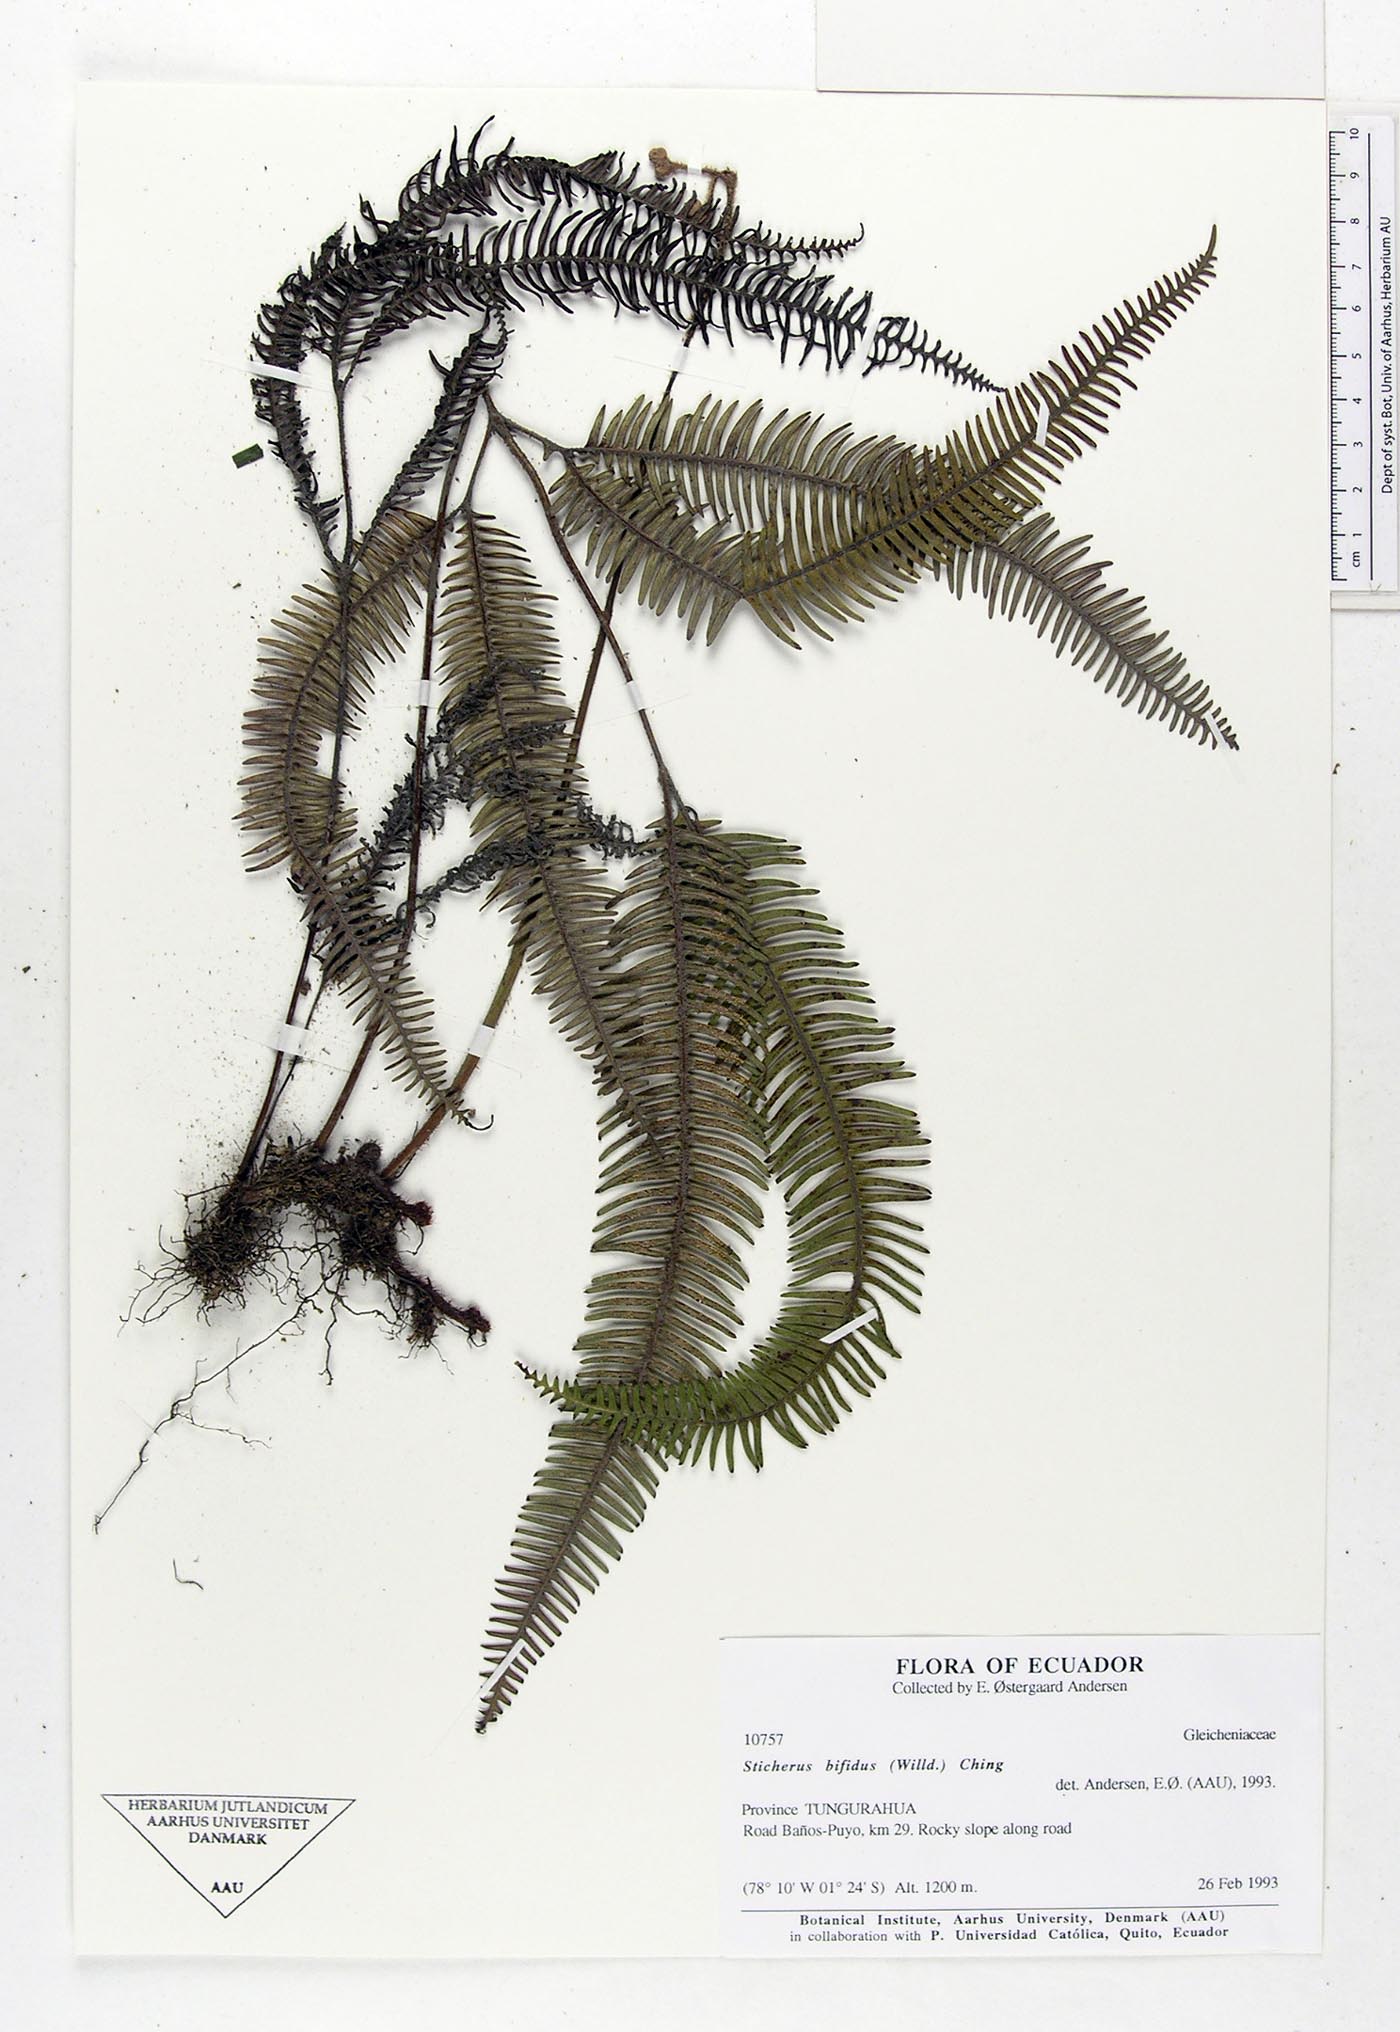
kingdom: Plantae
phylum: Tracheophyta
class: Polypodiopsida
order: Gleicheniales
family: Gleicheniaceae
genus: Sticherus
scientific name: Sticherus bifidus
